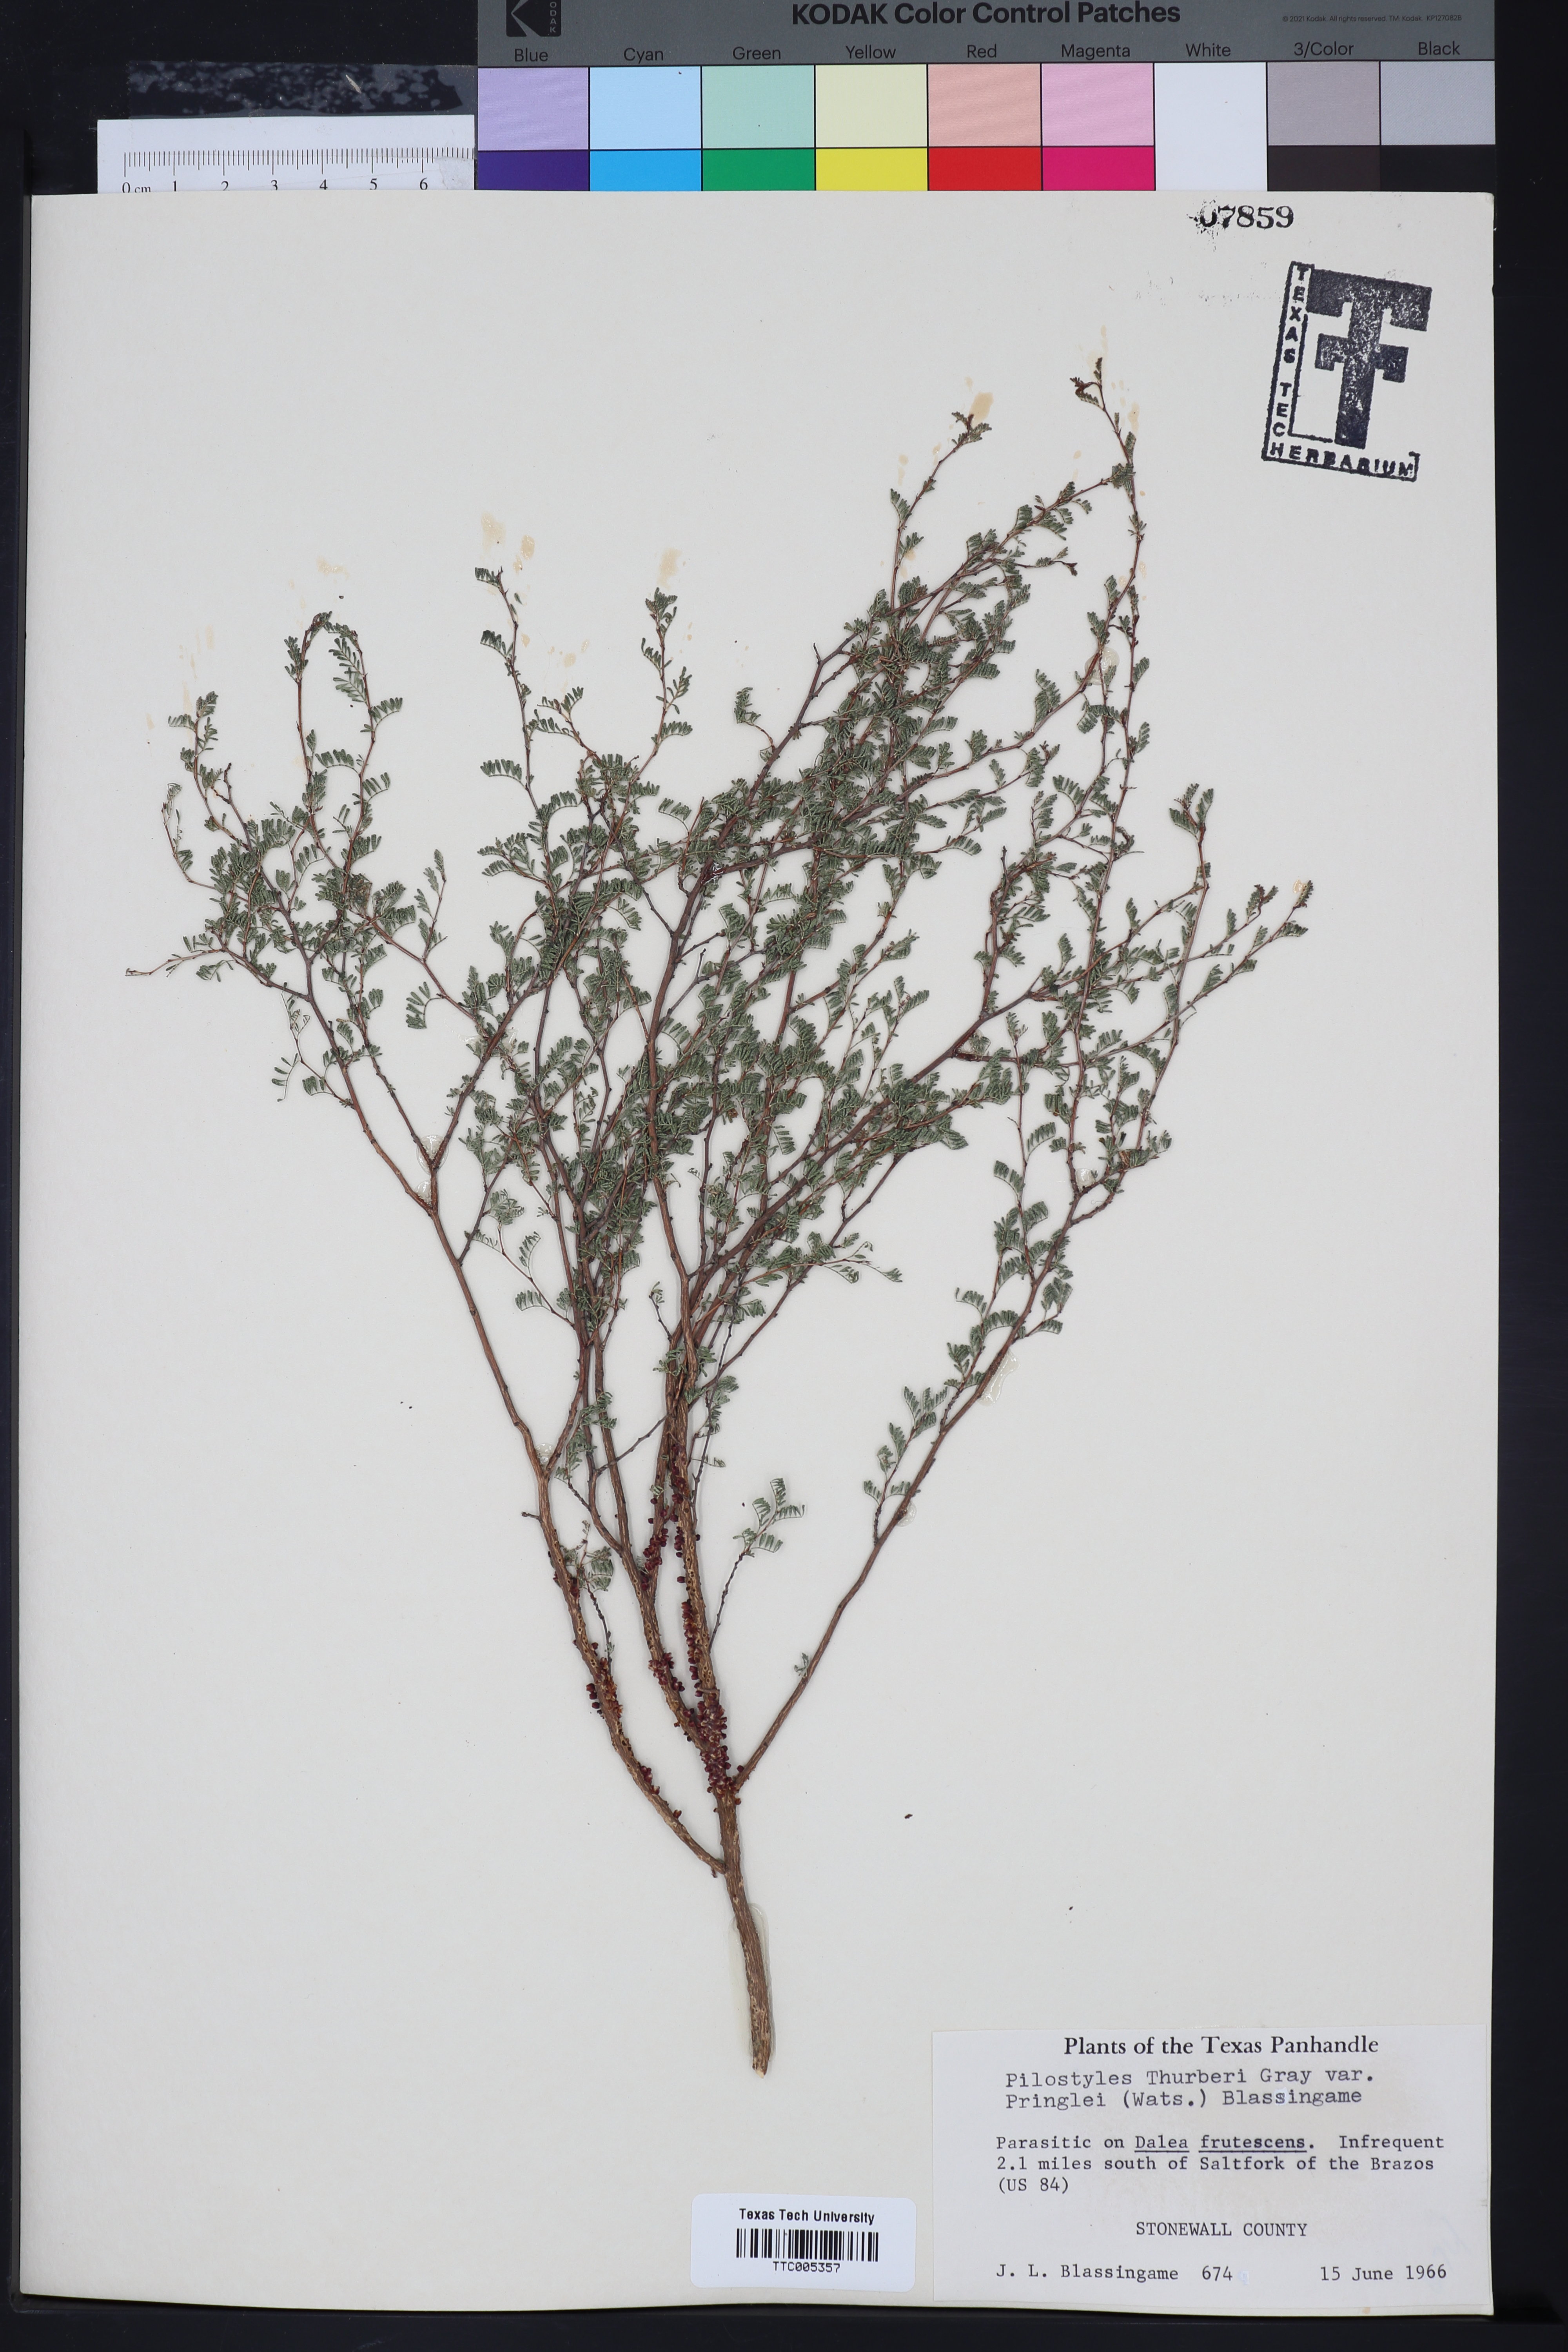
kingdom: Plantae
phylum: Tracheophyta
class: Magnoliopsida
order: Cucurbitales
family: Apodanthaceae
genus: Pilostyles
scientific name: Pilostyles thurberi
